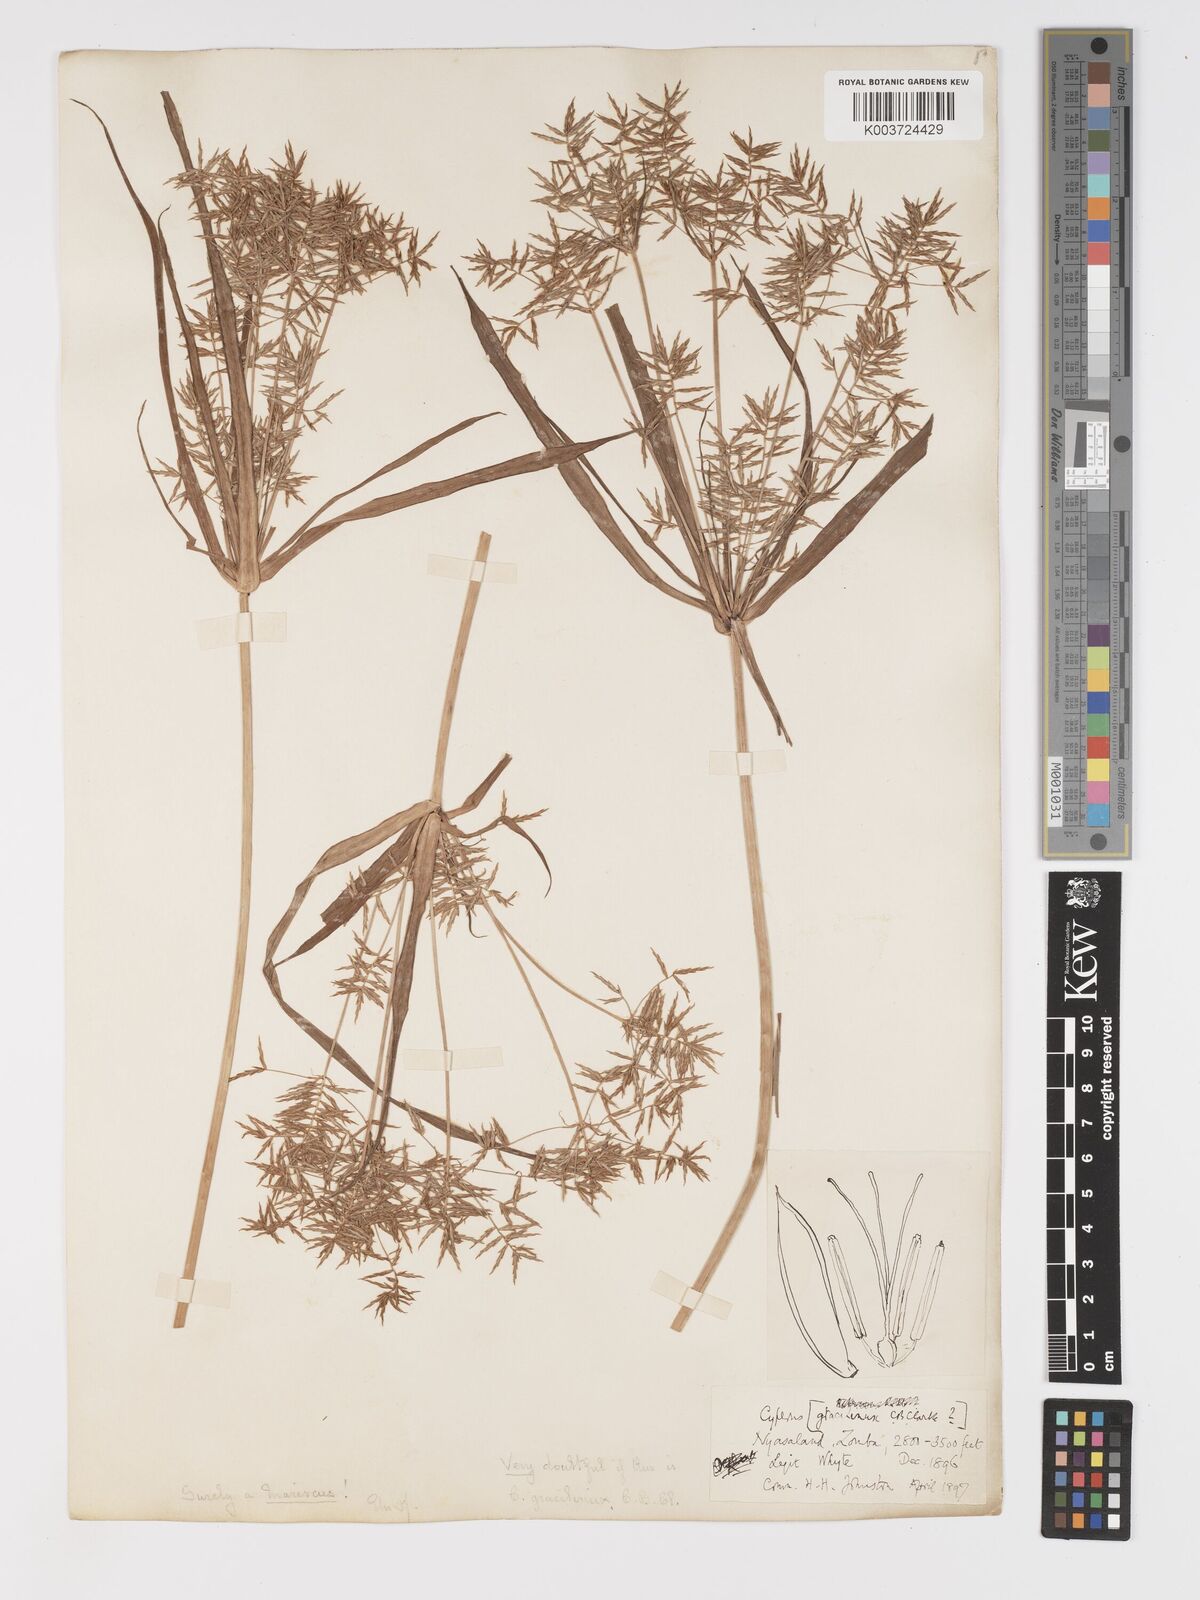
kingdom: Plantae
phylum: Tracheophyta
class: Liliopsida
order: Poales
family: Cyperaceae
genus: Cyperus
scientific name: Cyperus ferrugineoviridis
